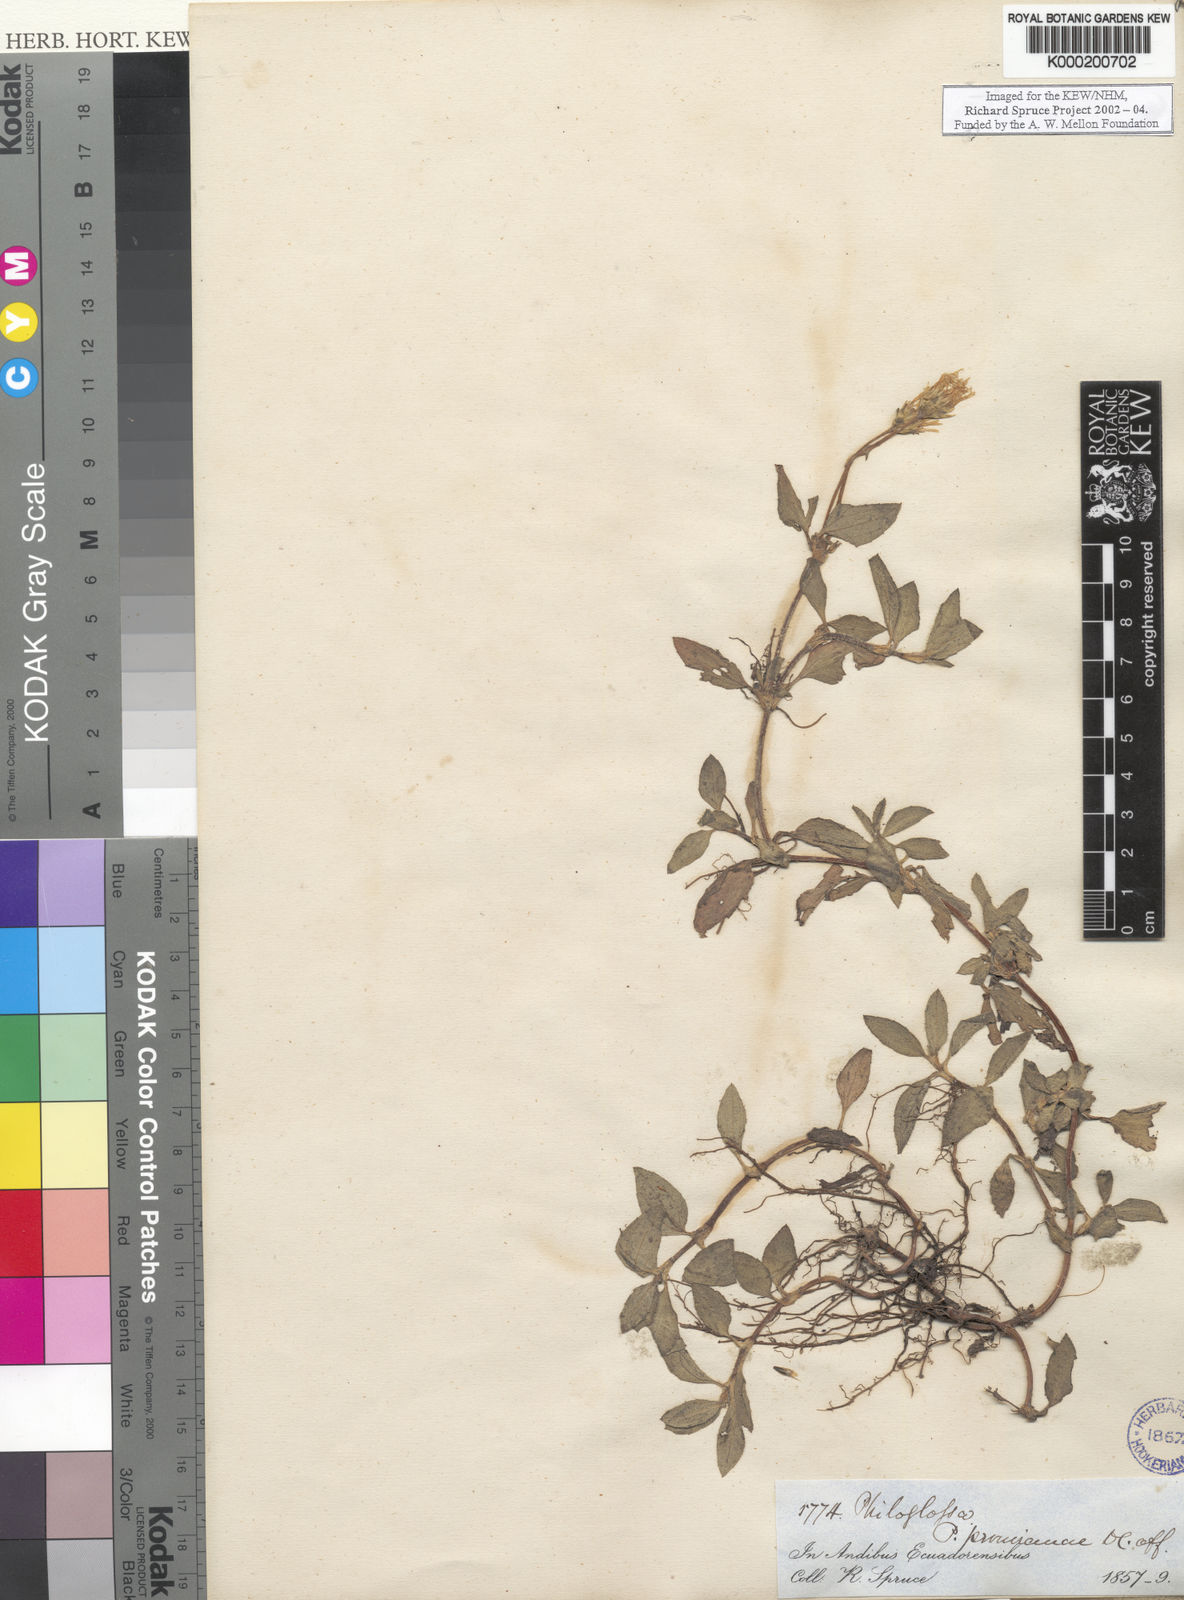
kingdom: Plantae
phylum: Tracheophyta
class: Magnoliopsida
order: Asterales
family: Asteraceae
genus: Philoglossa
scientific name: Philoglossa peruviana
